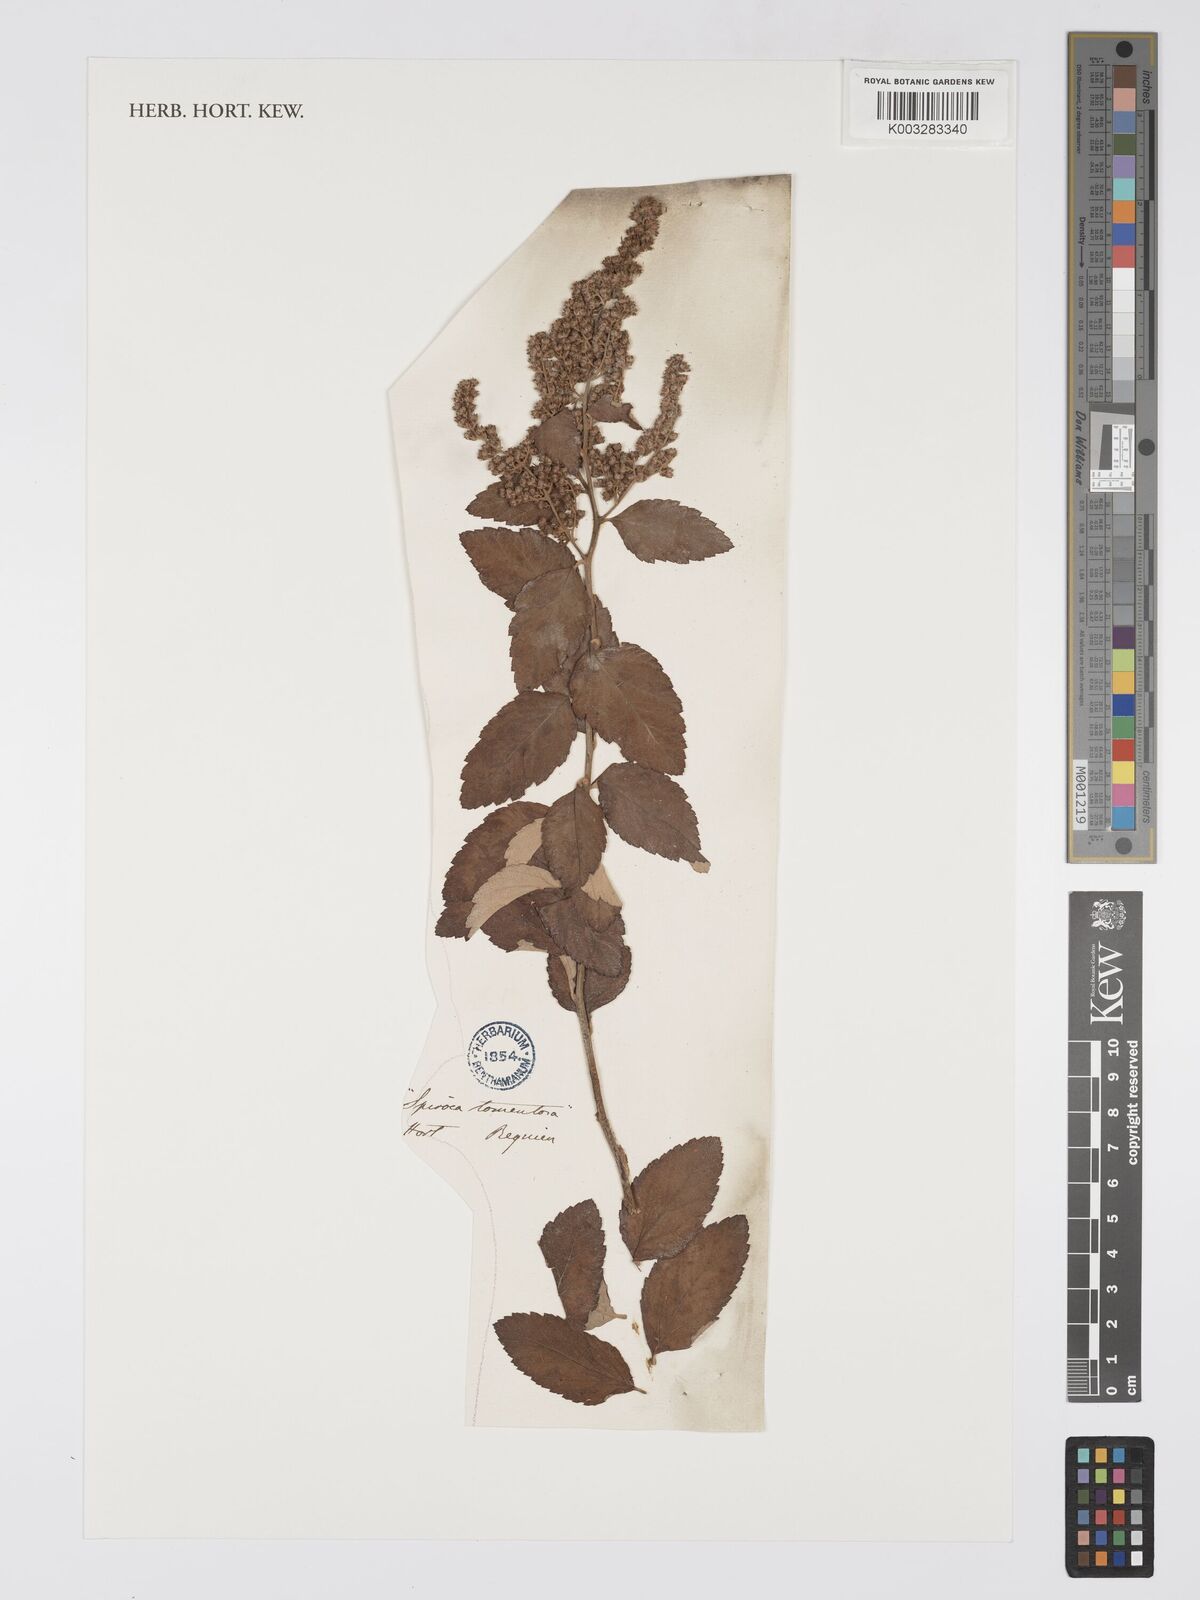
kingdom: Plantae
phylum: Tracheophyta
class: Magnoliopsida
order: Rosales
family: Rosaceae
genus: Spiraea
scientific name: Spiraea tomentosa
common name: Hardhack
